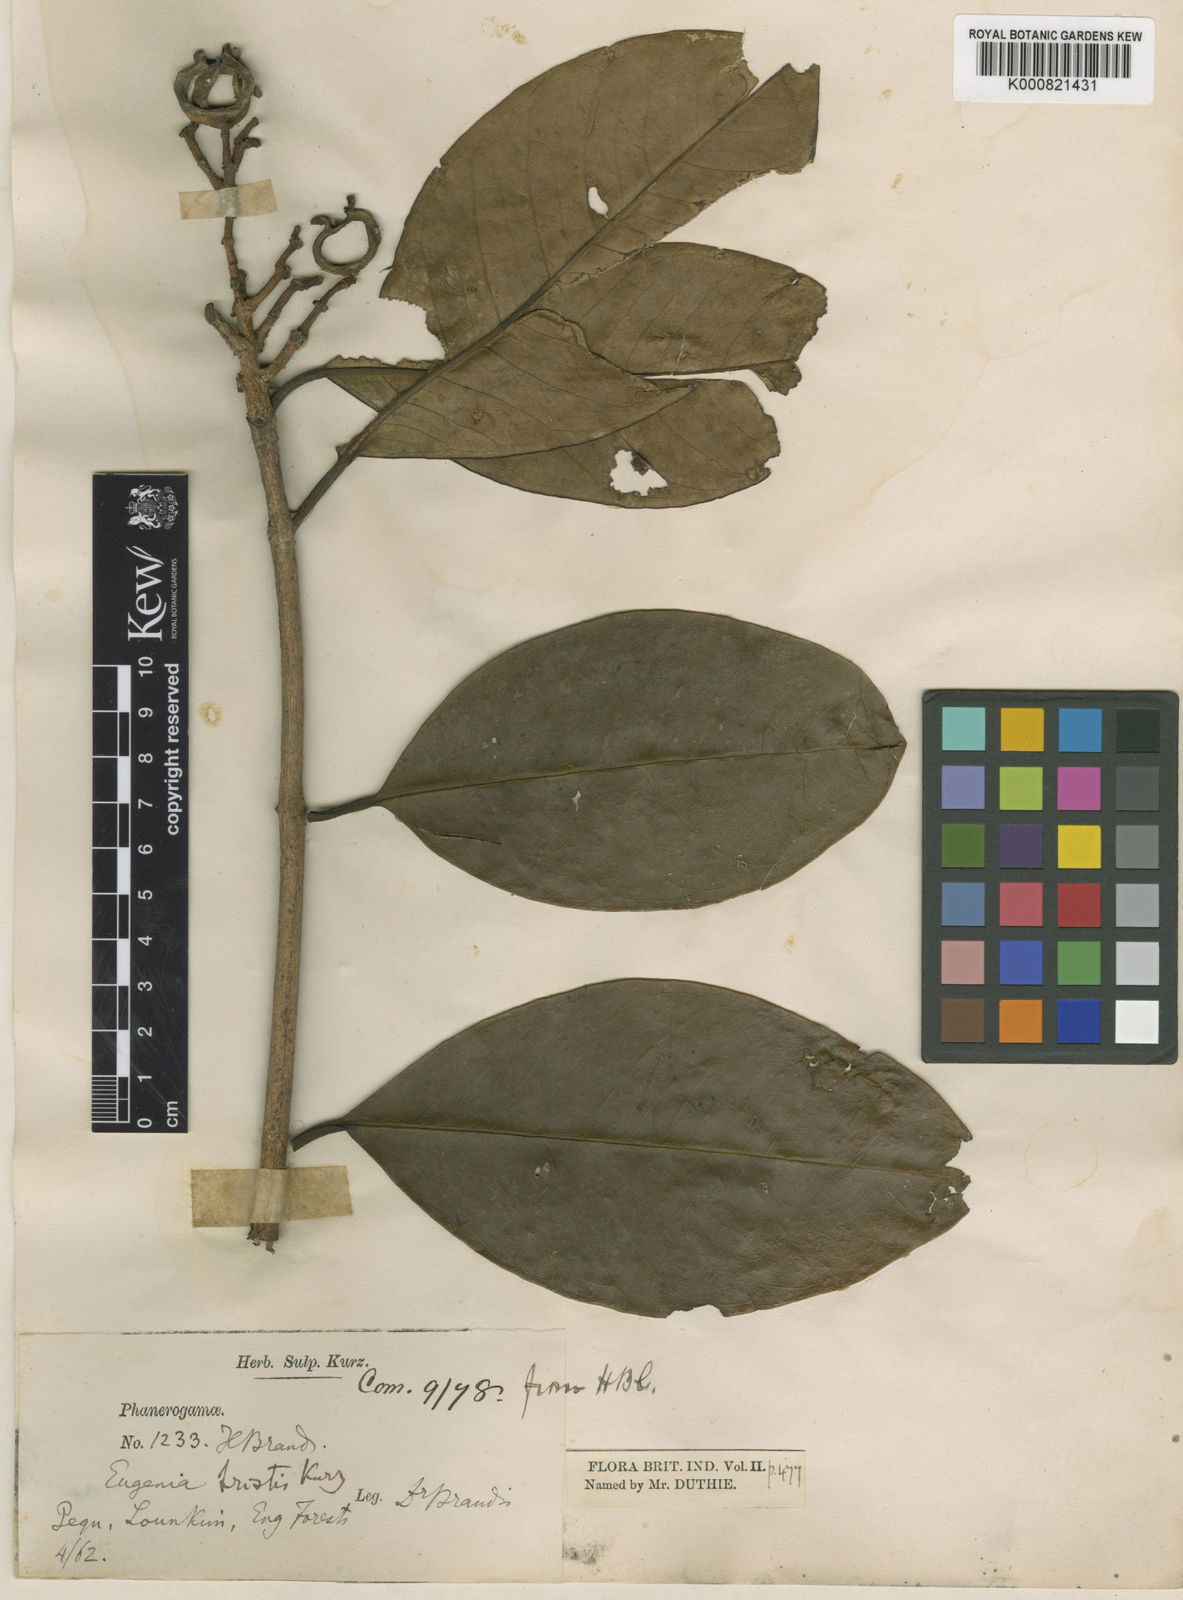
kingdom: Plantae
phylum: Tracheophyta
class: Magnoliopsida
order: Myrtales
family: Myrtaceae
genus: Syzygium
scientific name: Syzygium triste
